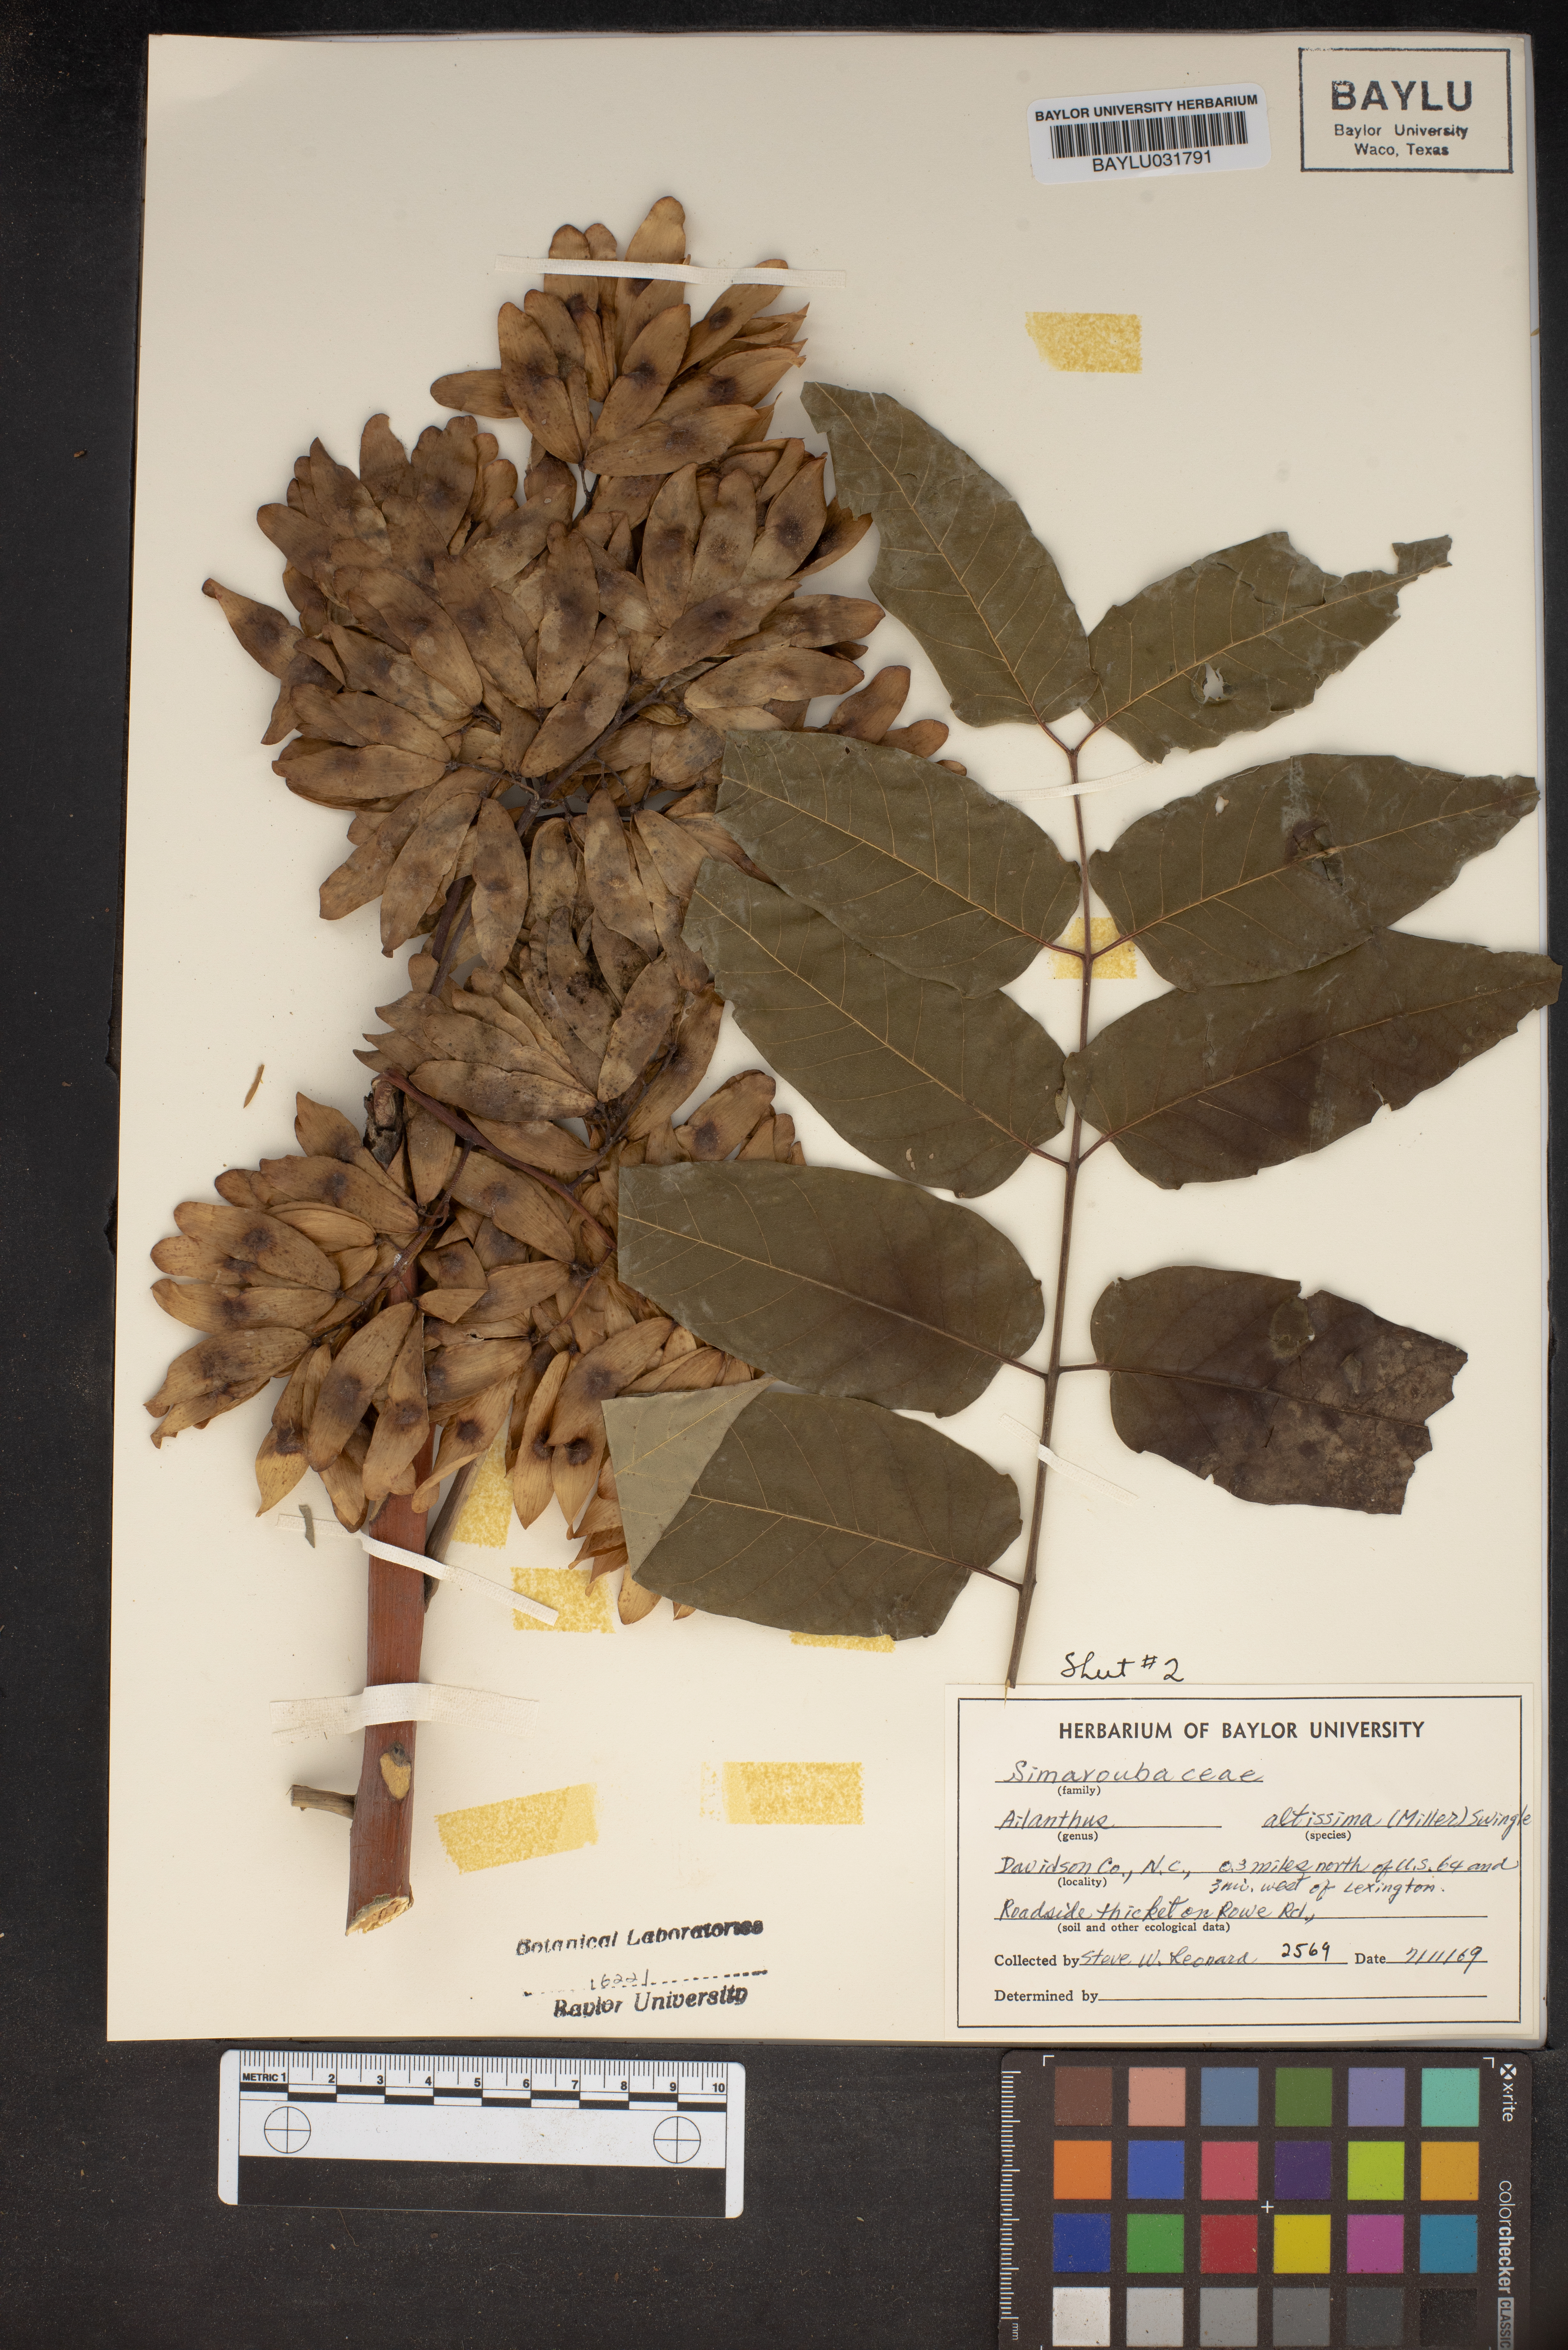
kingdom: Plantae
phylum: Tracheophyta
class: Magnoliopsida
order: Sapindales
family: Simaroubaceae
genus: Ailanthus
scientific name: Ailanthus altissima
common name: Tree-of-heaven
